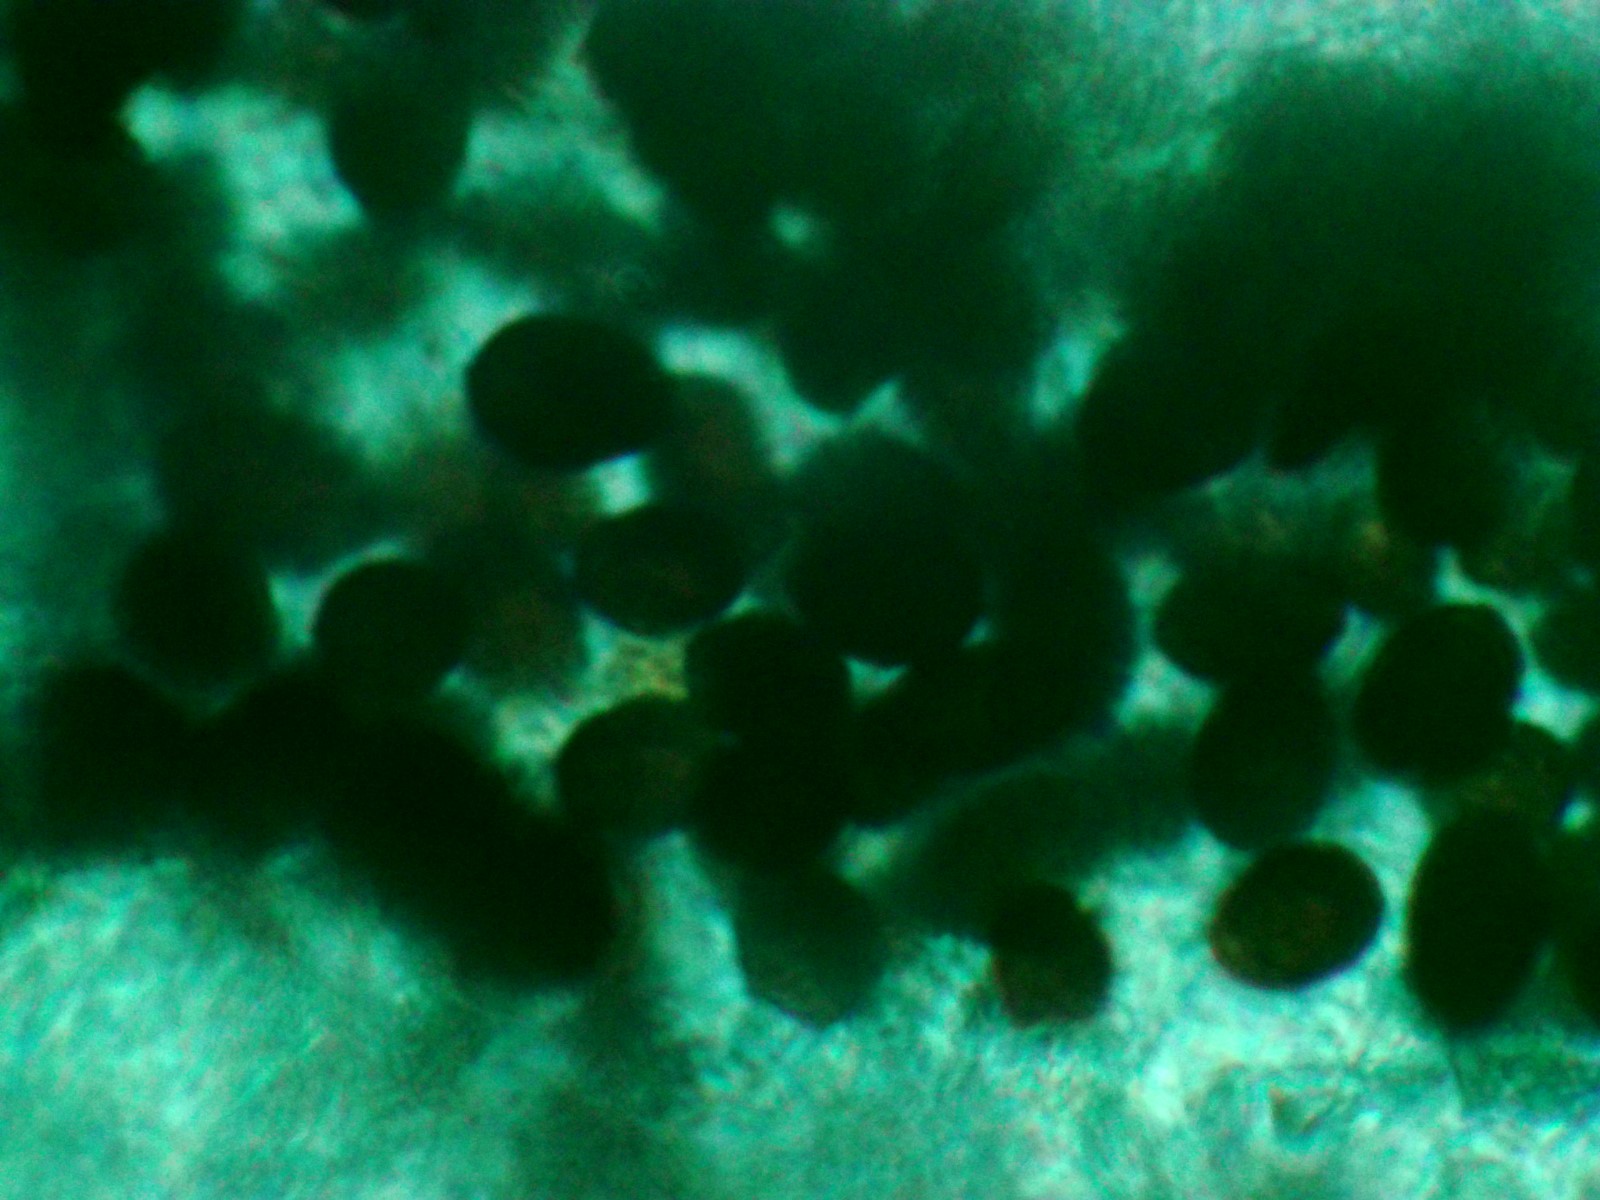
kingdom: Fungi
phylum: Basidiomycota
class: Agaricomycetes
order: Agaricales
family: Psathyrellaceae
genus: Parasola
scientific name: Parasola plicatilis
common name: plæne-hjulhat
